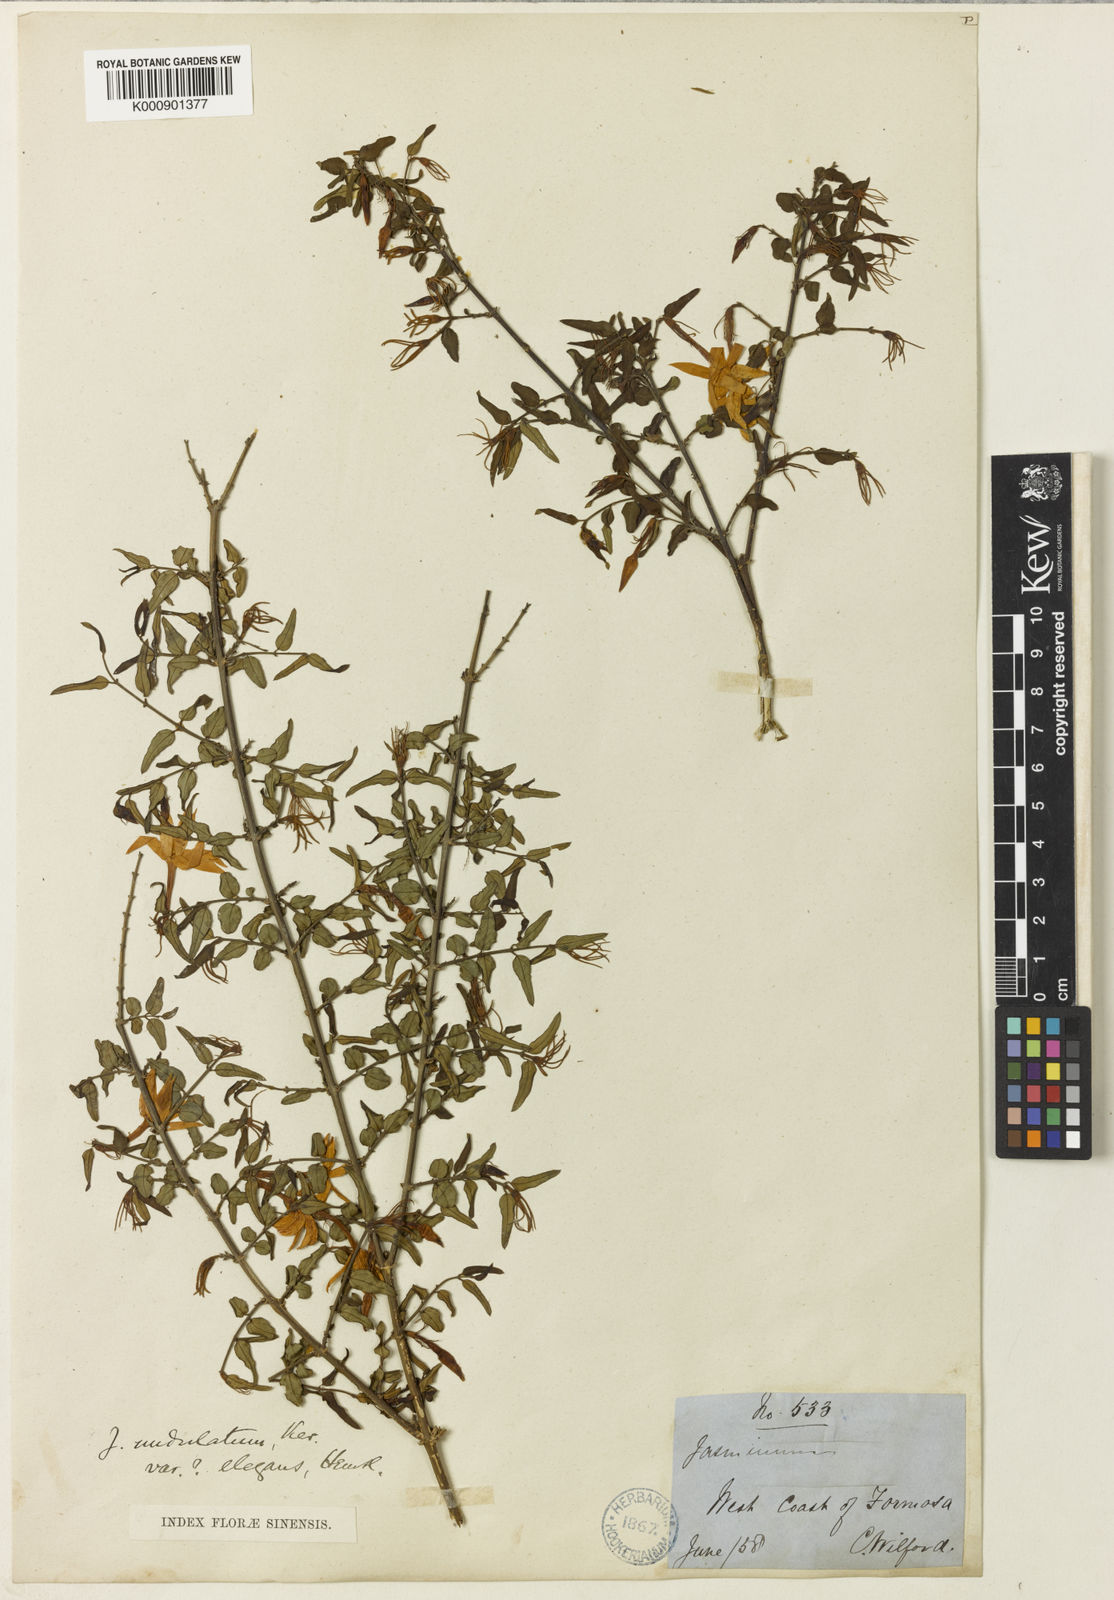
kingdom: Plantae
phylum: Tracheophyta
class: Magnoliopsida
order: Lamiales
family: Oleaceae
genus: Jasminum
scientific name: Jasminum nervosum
